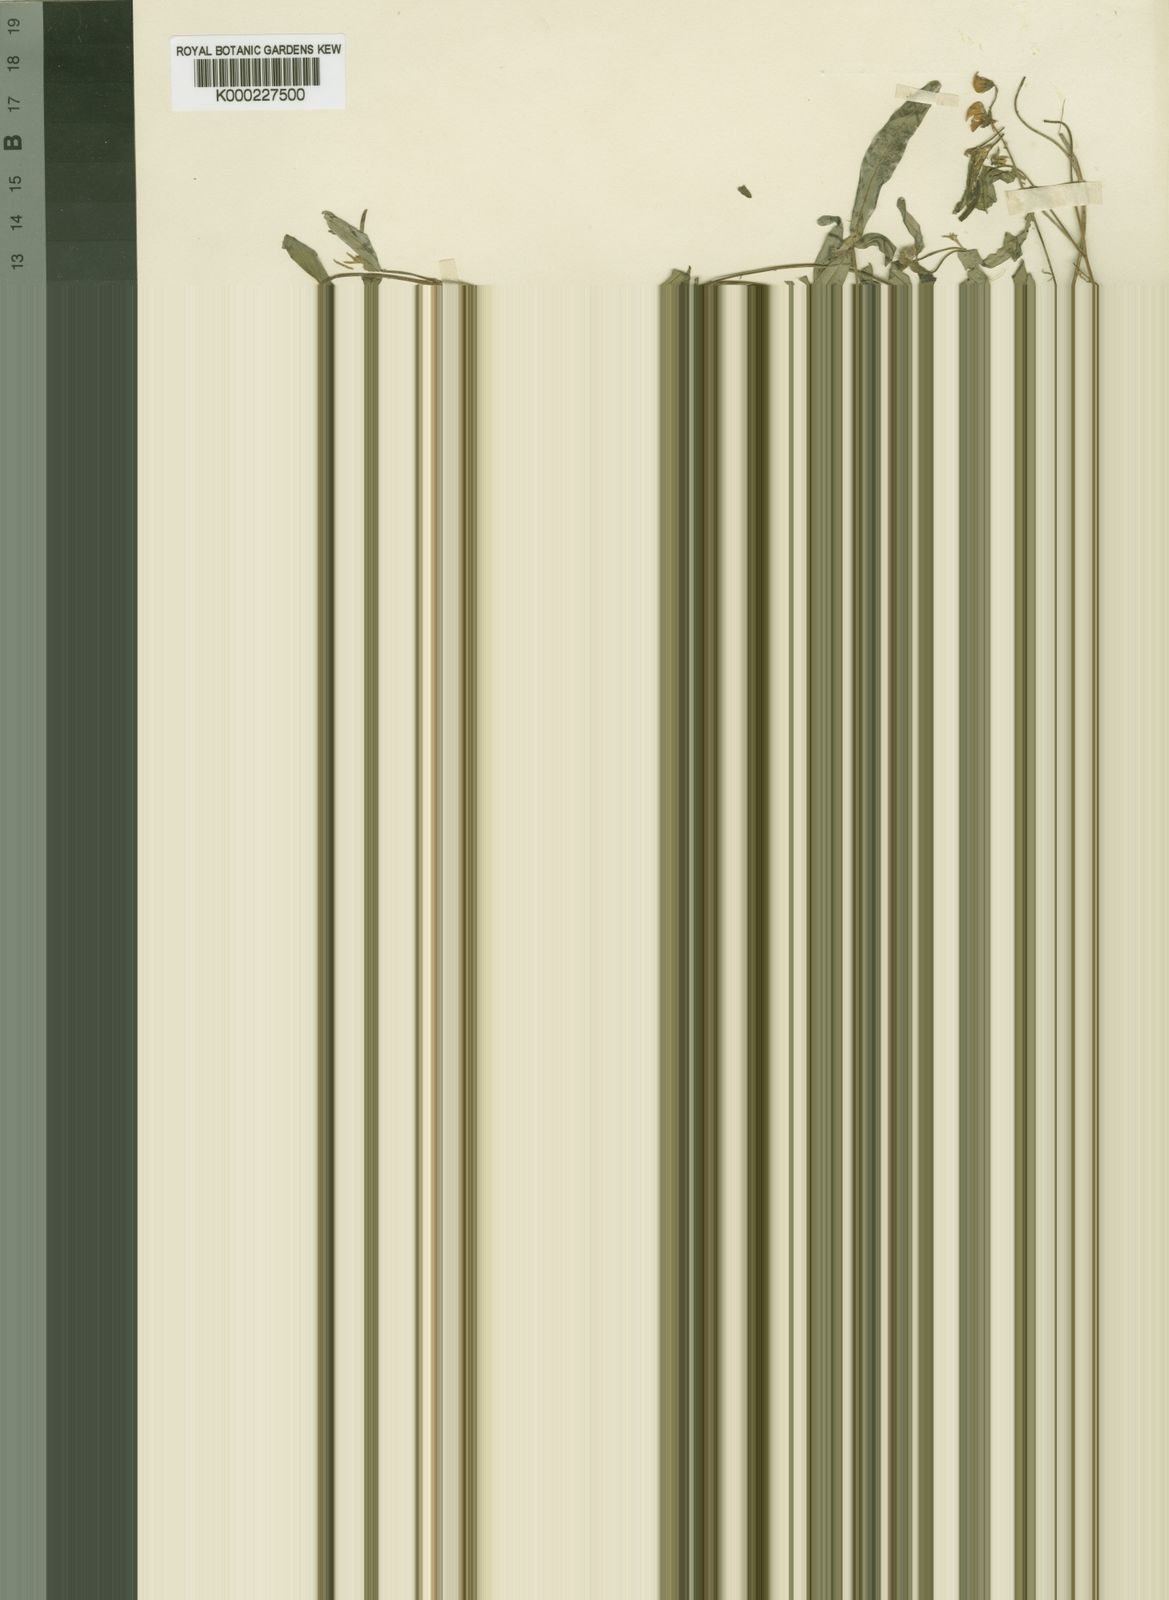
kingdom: Plantae
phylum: Tracheophyta
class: Magnoliopsida
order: Fabales
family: Fabaceae
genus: Crotalaria
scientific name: Crotalaria loandae
